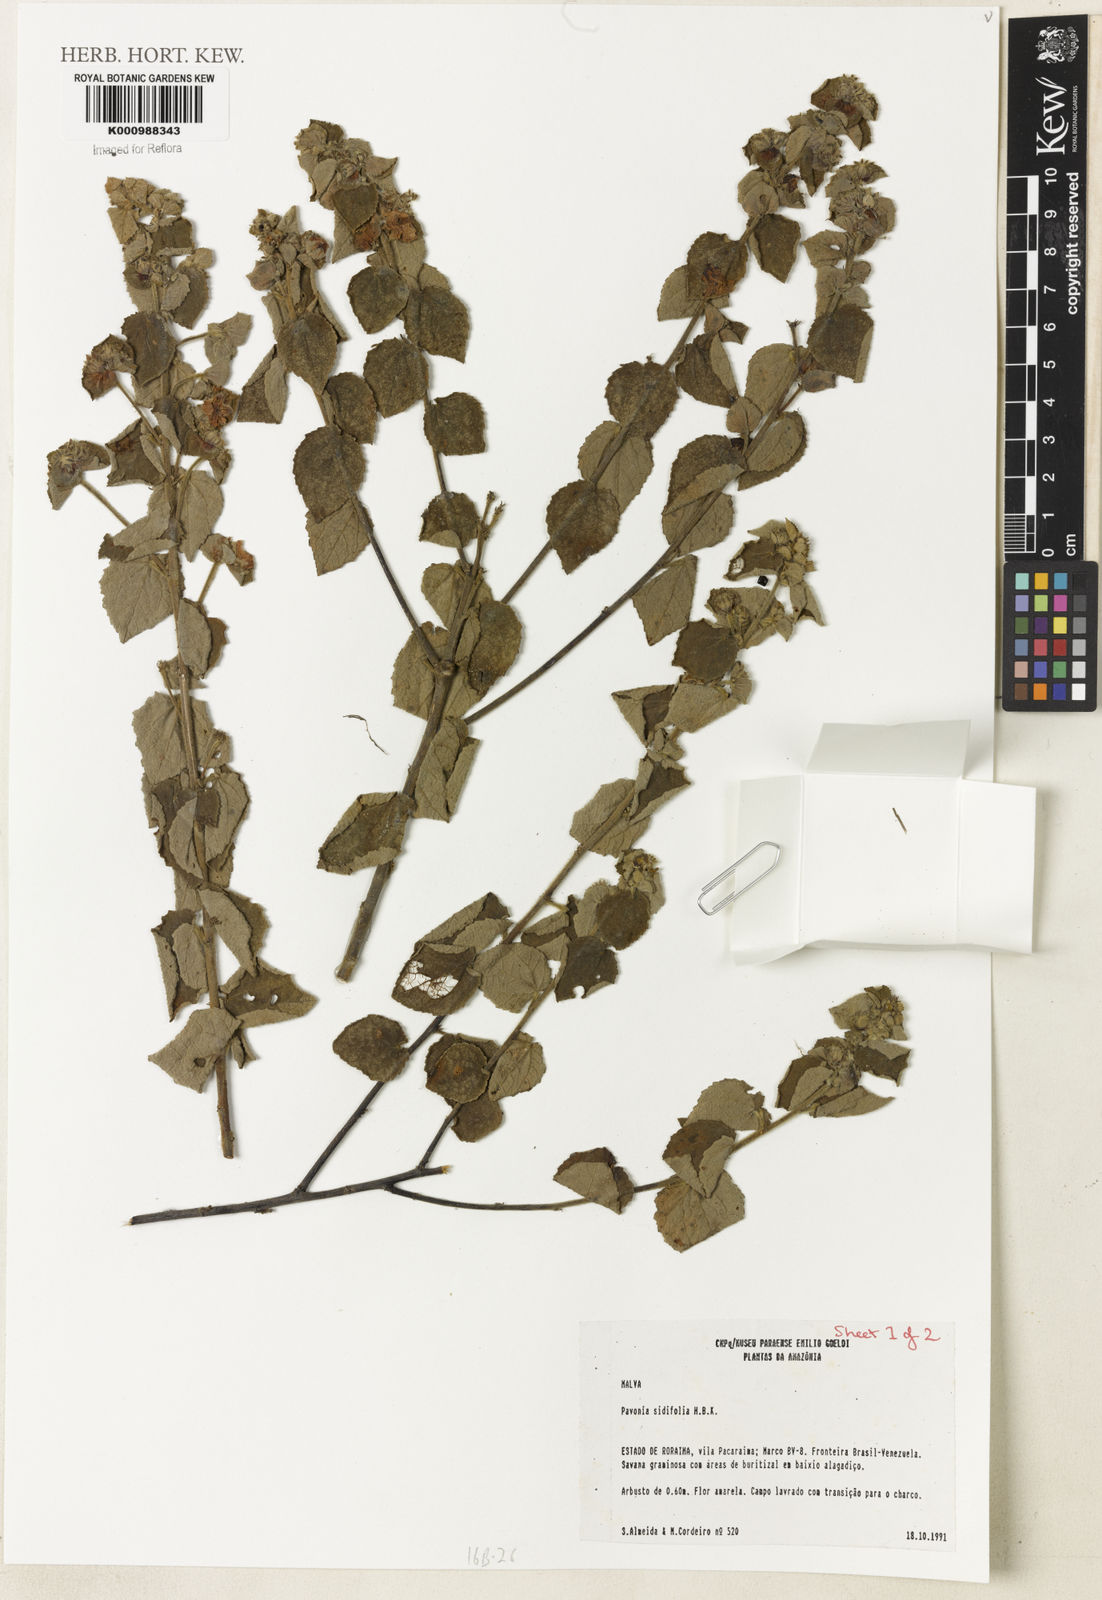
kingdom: Plantae
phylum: Tracheophyta
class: Magnoliopsida
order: Malvales
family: Malvaceae
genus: Pavonia
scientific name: Pavonia sidifolia
